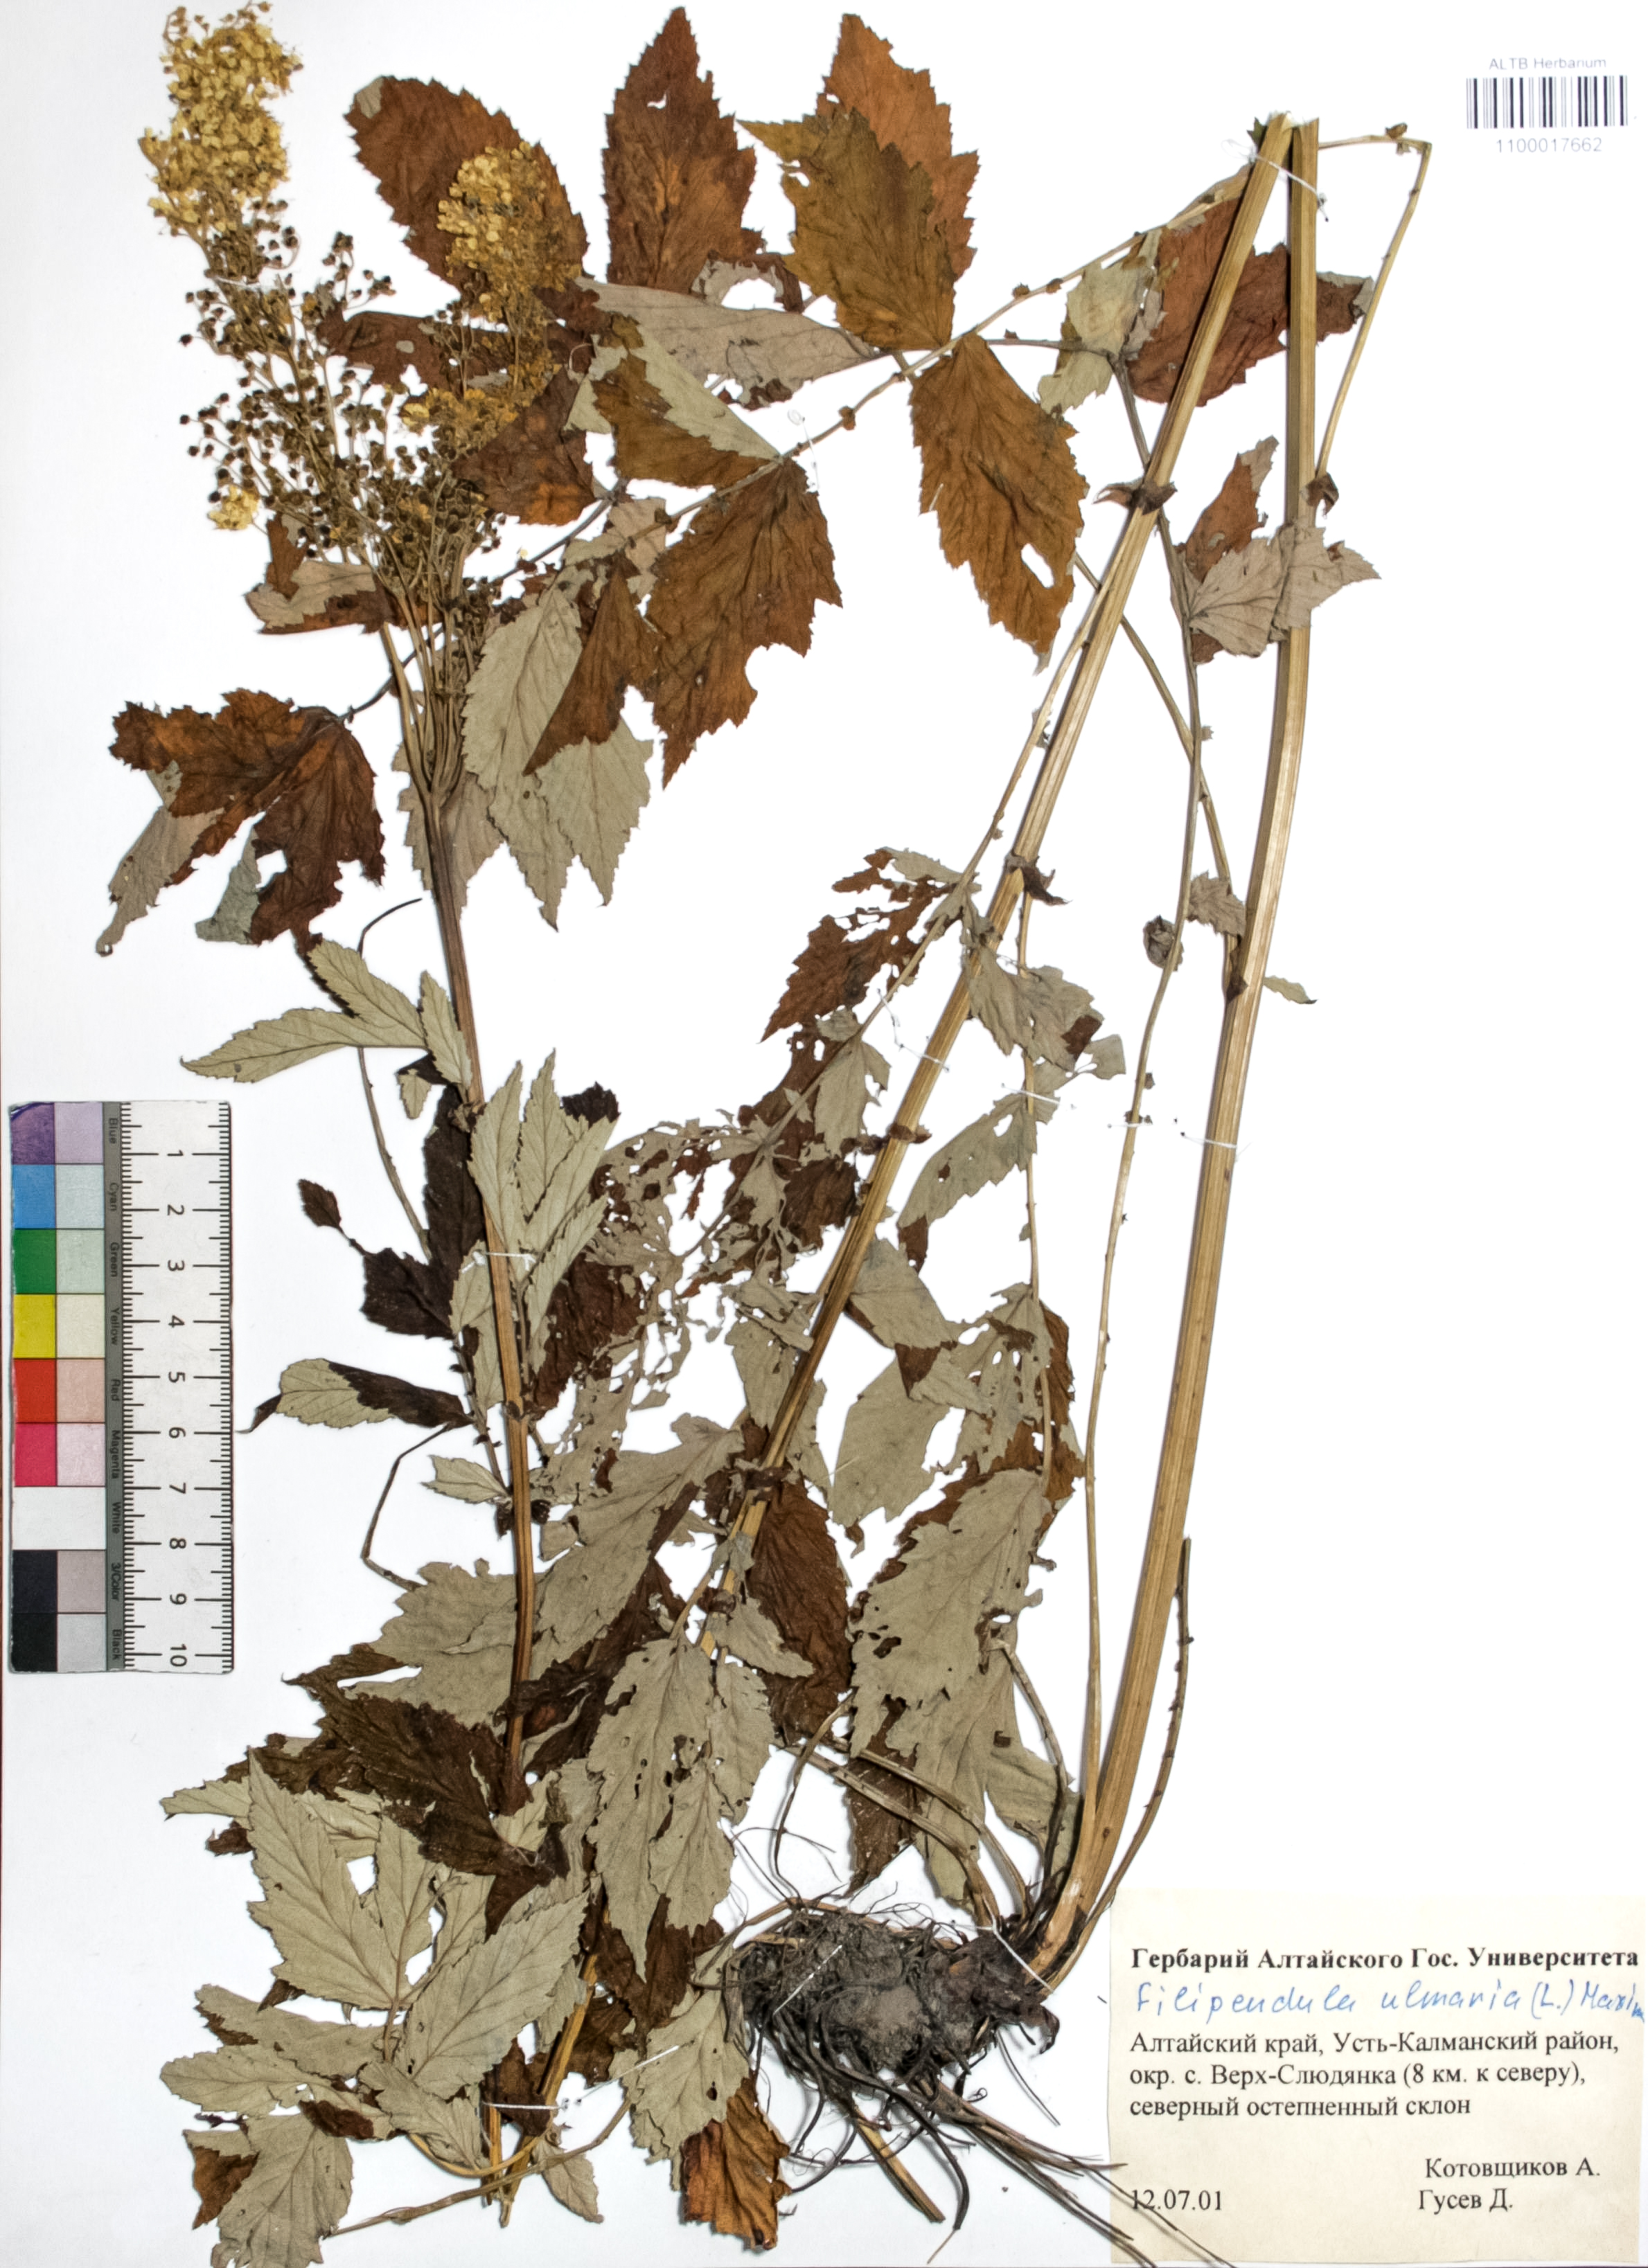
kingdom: Plantae
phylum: Tracheophyta
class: Magnoliopsida
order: Rosales
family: Rosaceae
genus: Filipendula
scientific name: Filipendula ulmaria
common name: Meadowsweet
